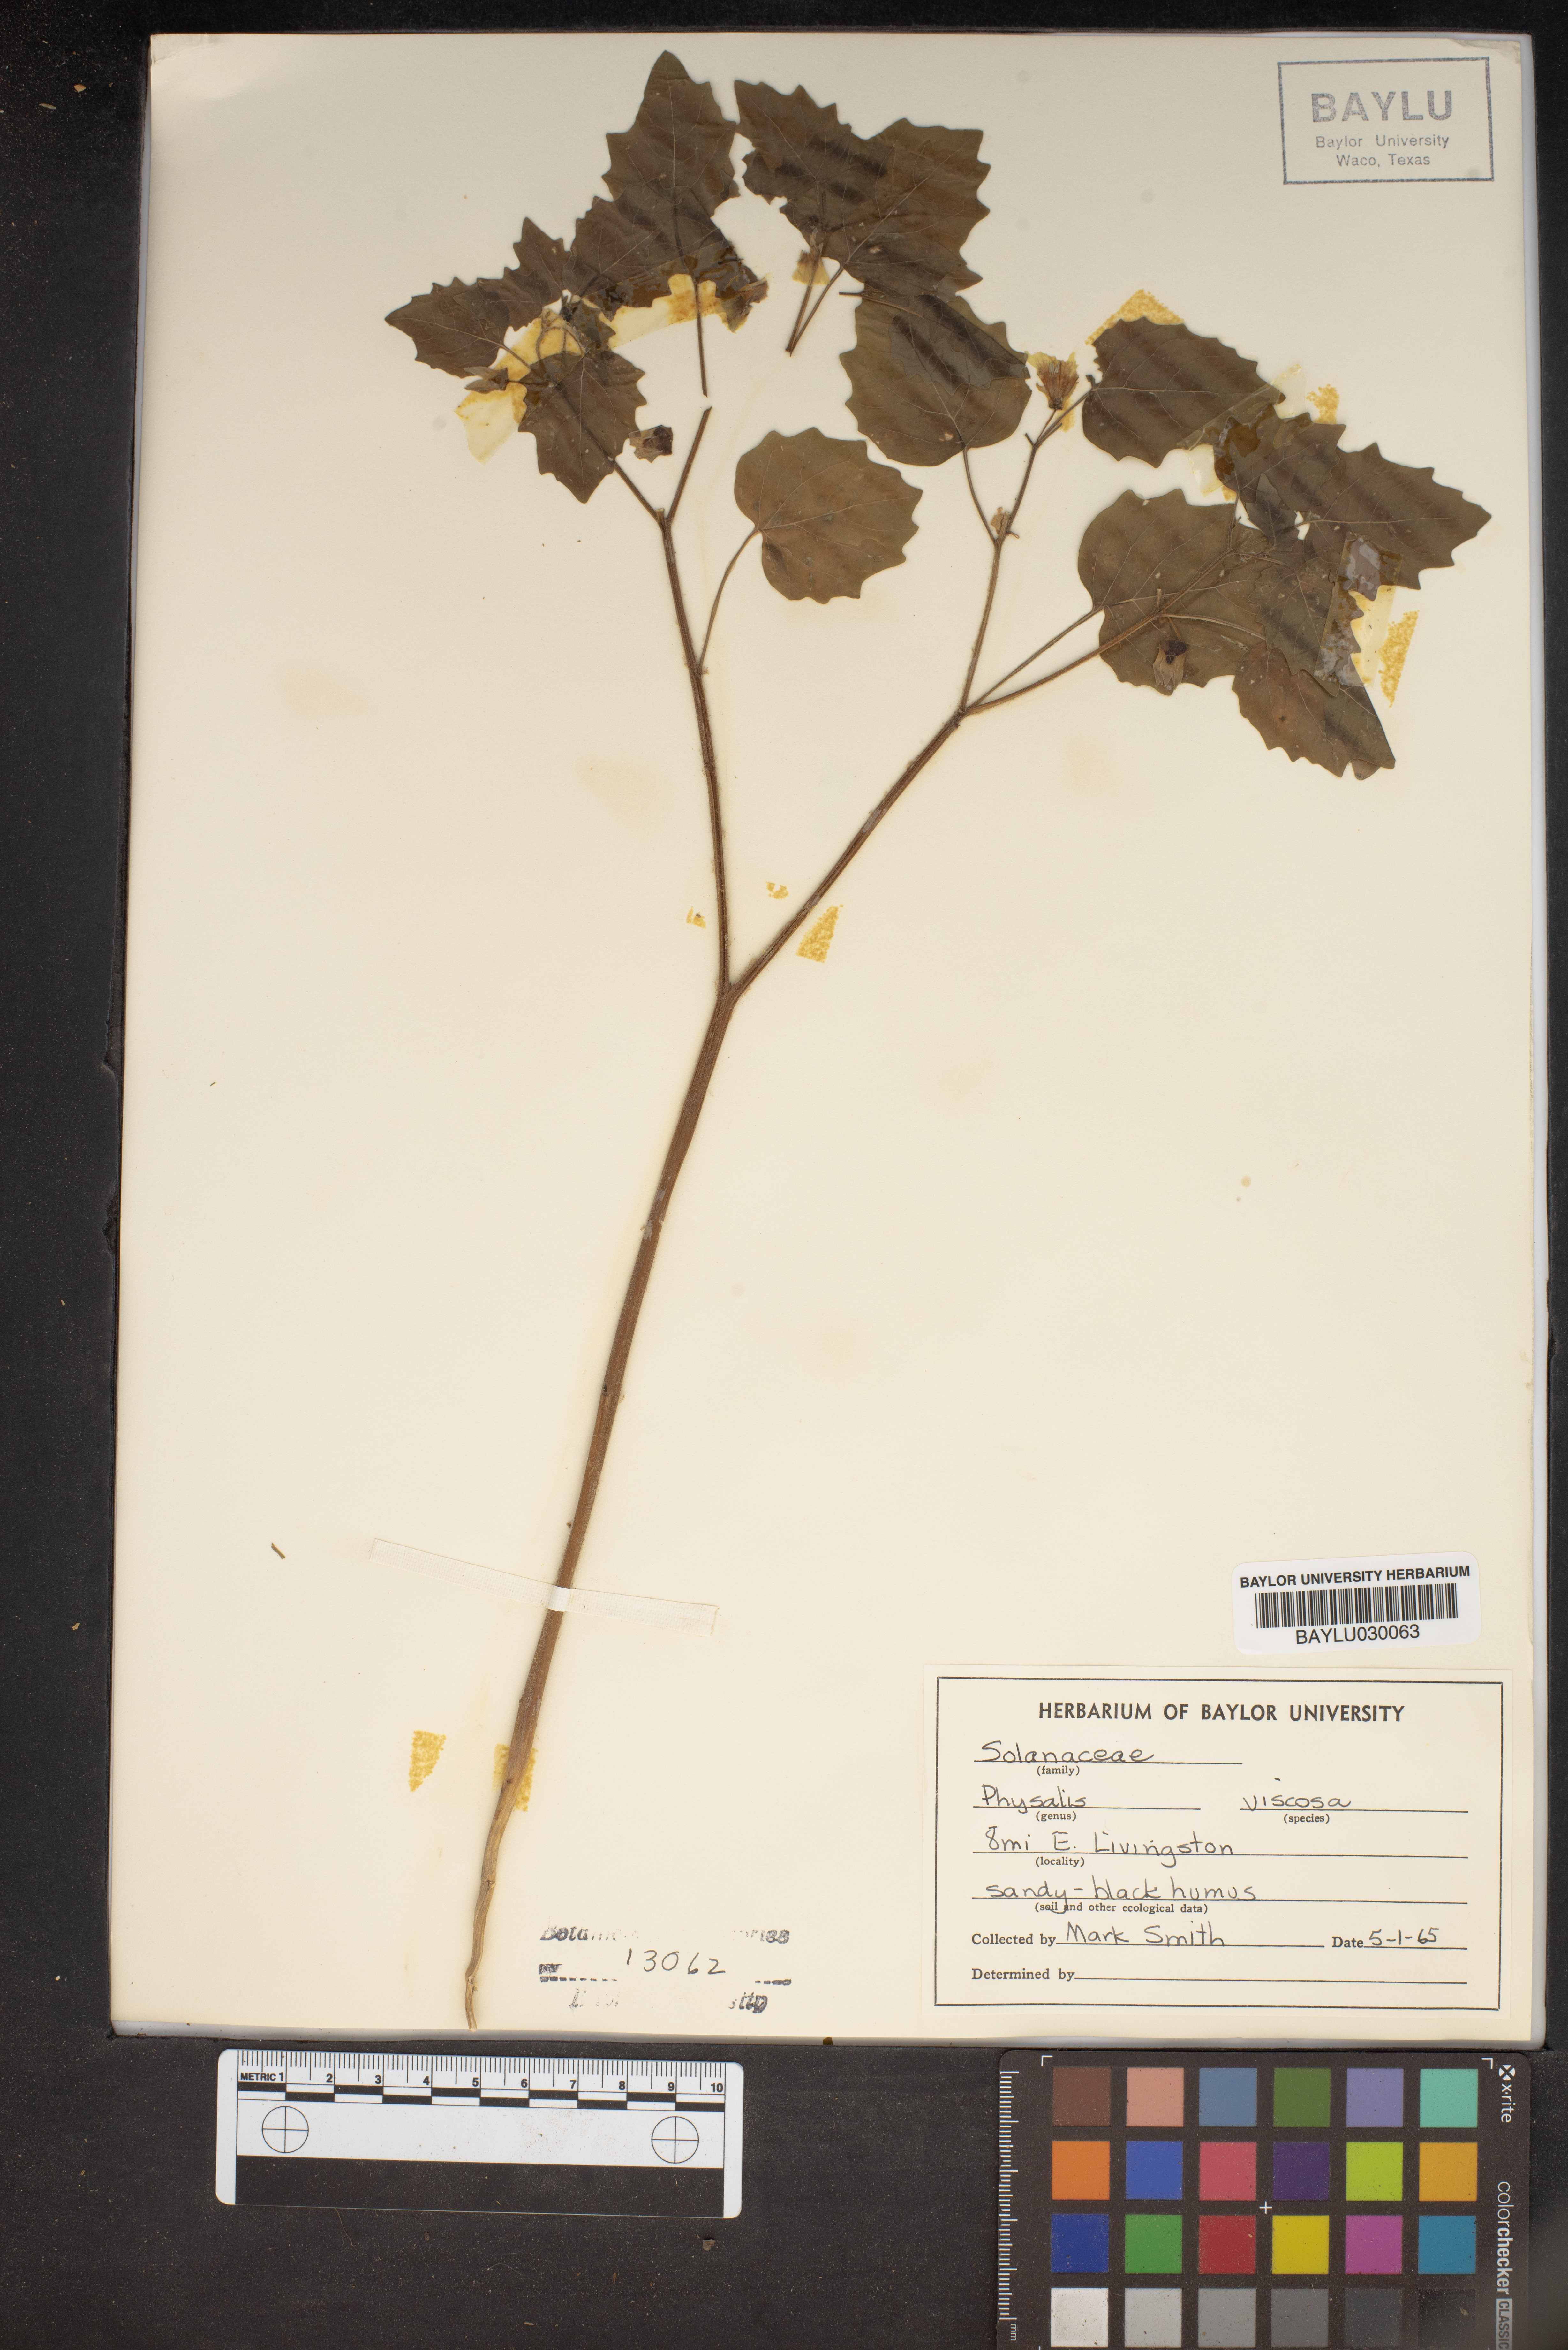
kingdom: Plantae
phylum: Tracheophyta
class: Magnoliopsida
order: Solanales
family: Solanaceae
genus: Physalis
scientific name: Physalis viscosa
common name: Stellate ground-cherry
